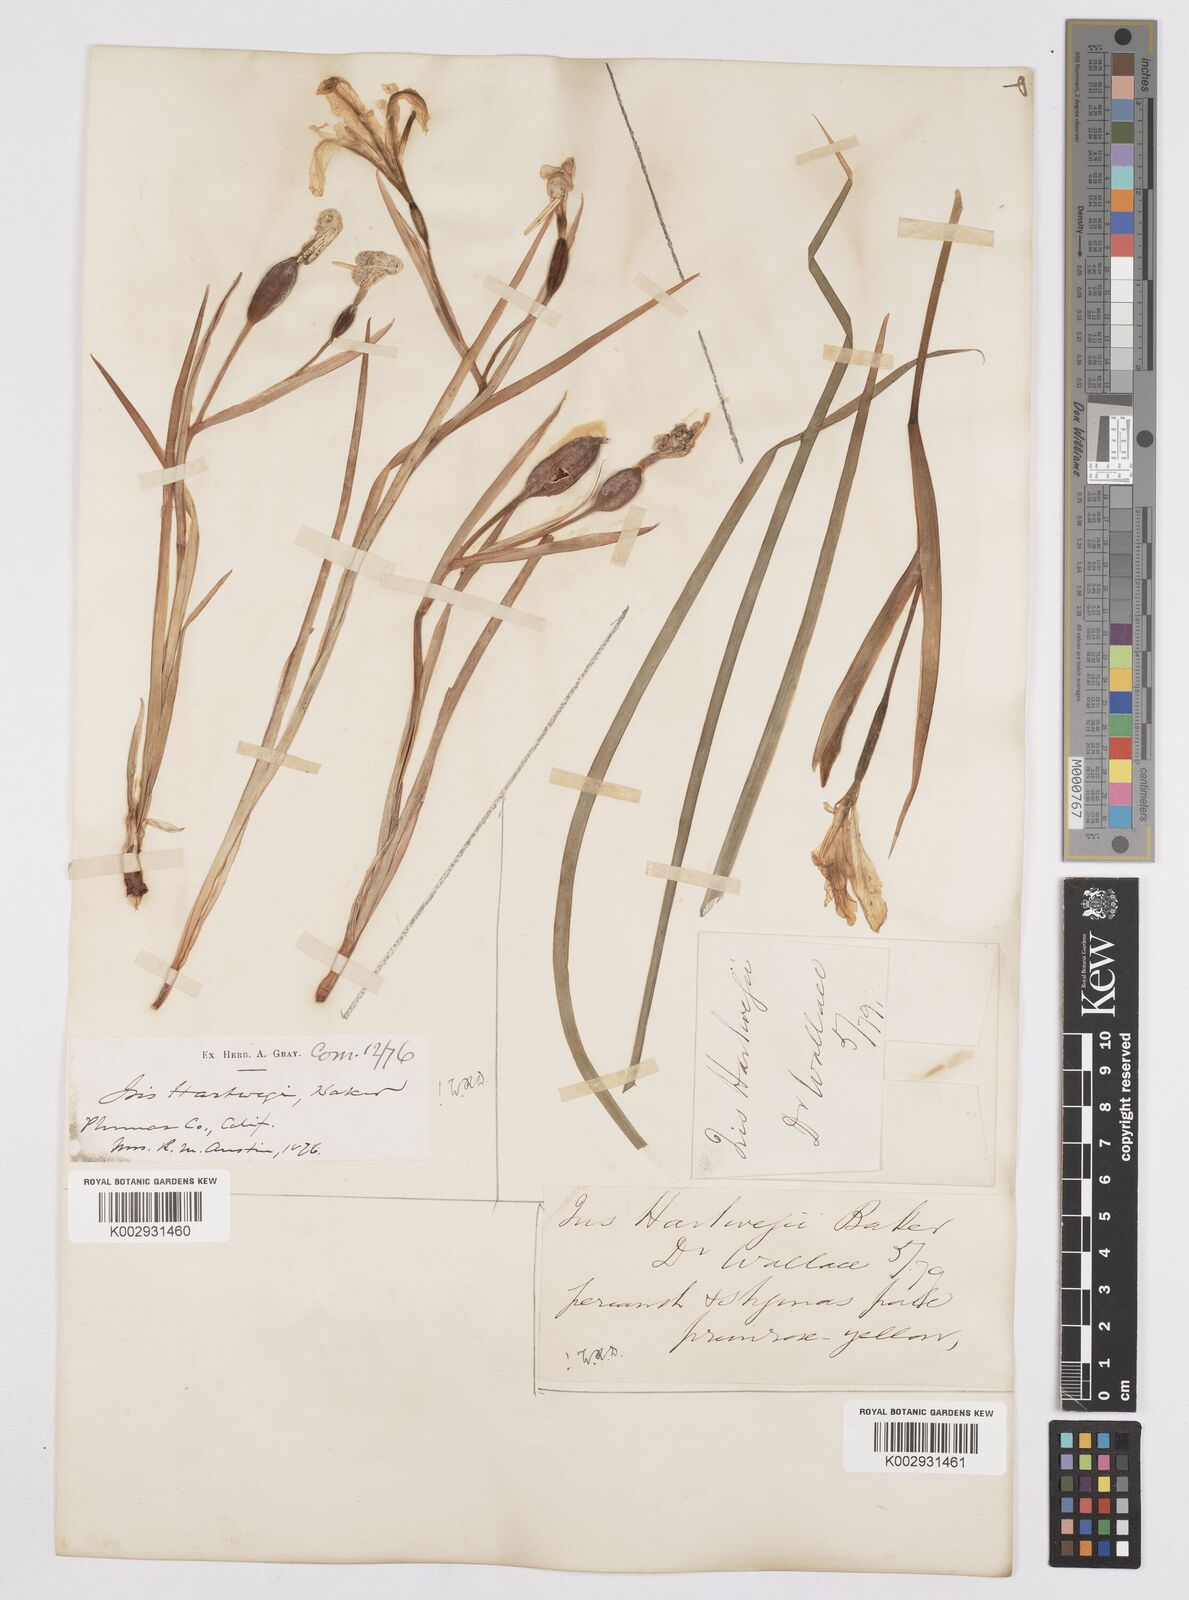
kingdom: Plantae
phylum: Tracheophyta
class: Liliopsida
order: Asparagales
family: Iridaceae
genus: Iris
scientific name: Iris hartwegii
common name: Sierra iris
